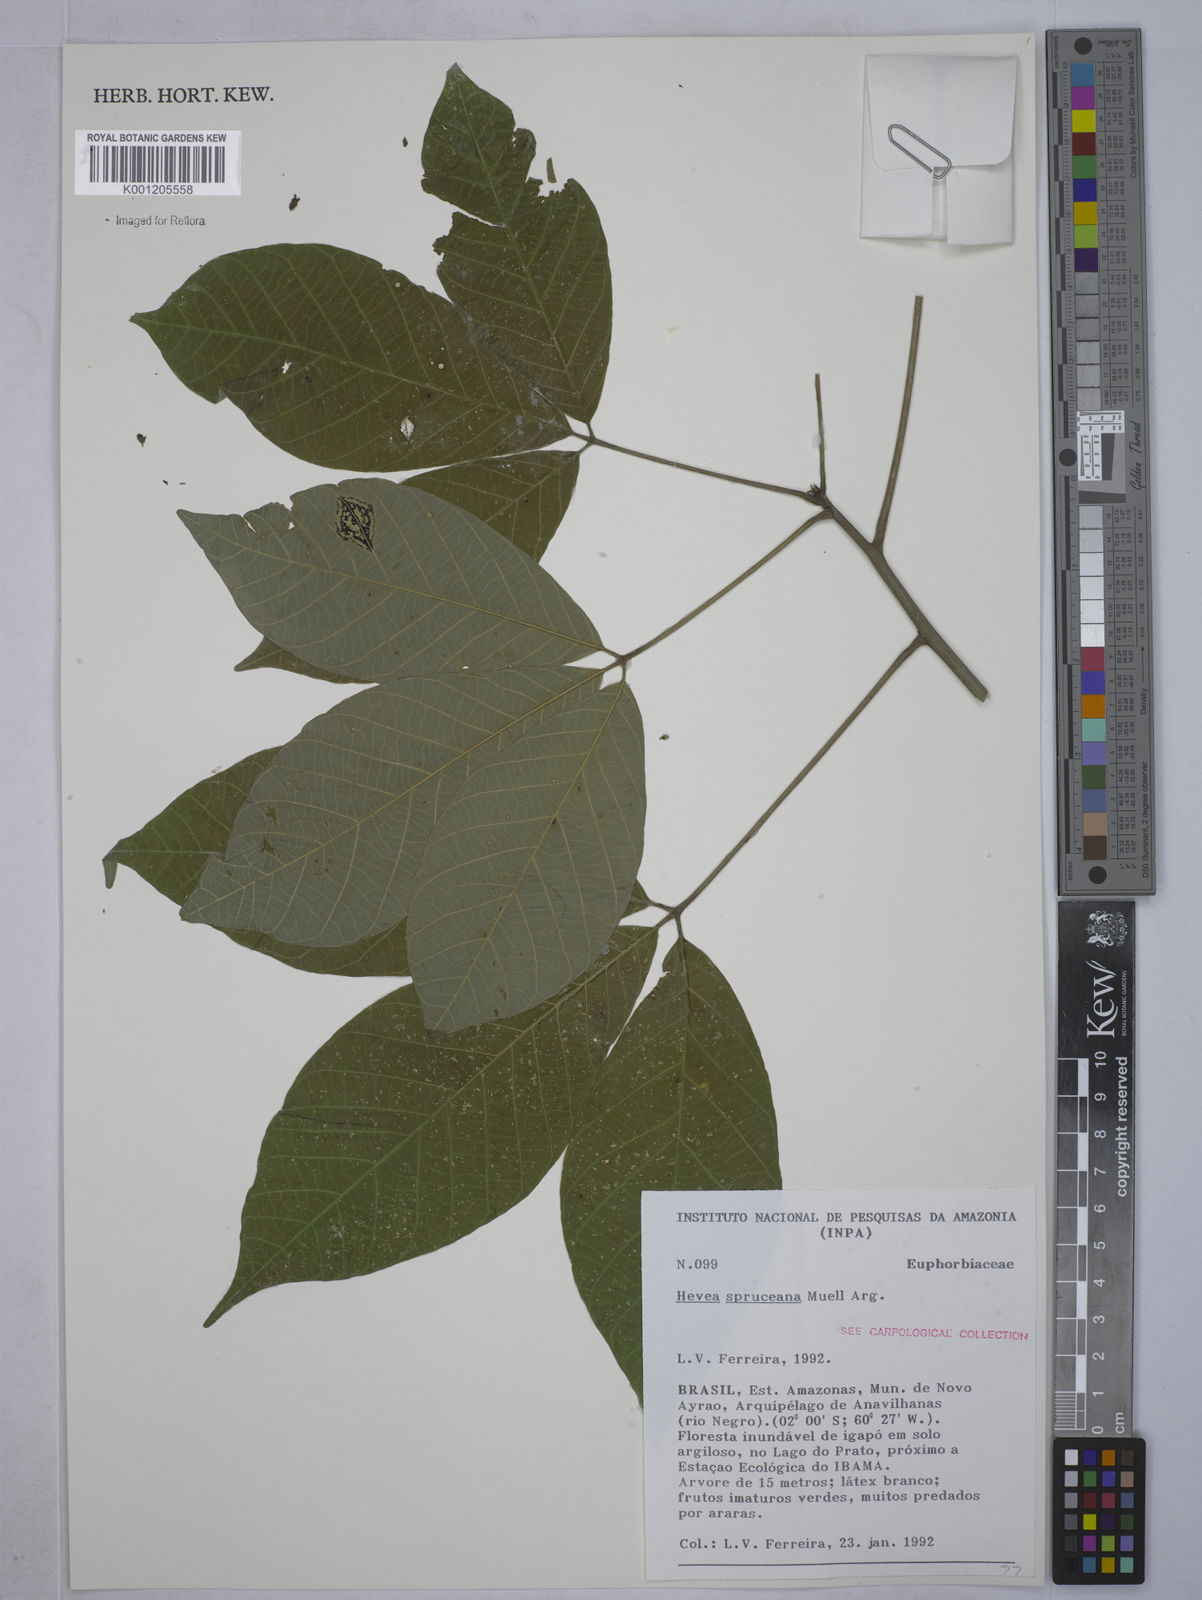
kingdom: Plantae
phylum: Tracheophyta
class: Magnoliopsida
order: Malpighiales
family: Euphorbiaceae
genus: Hevea
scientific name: Hevea
